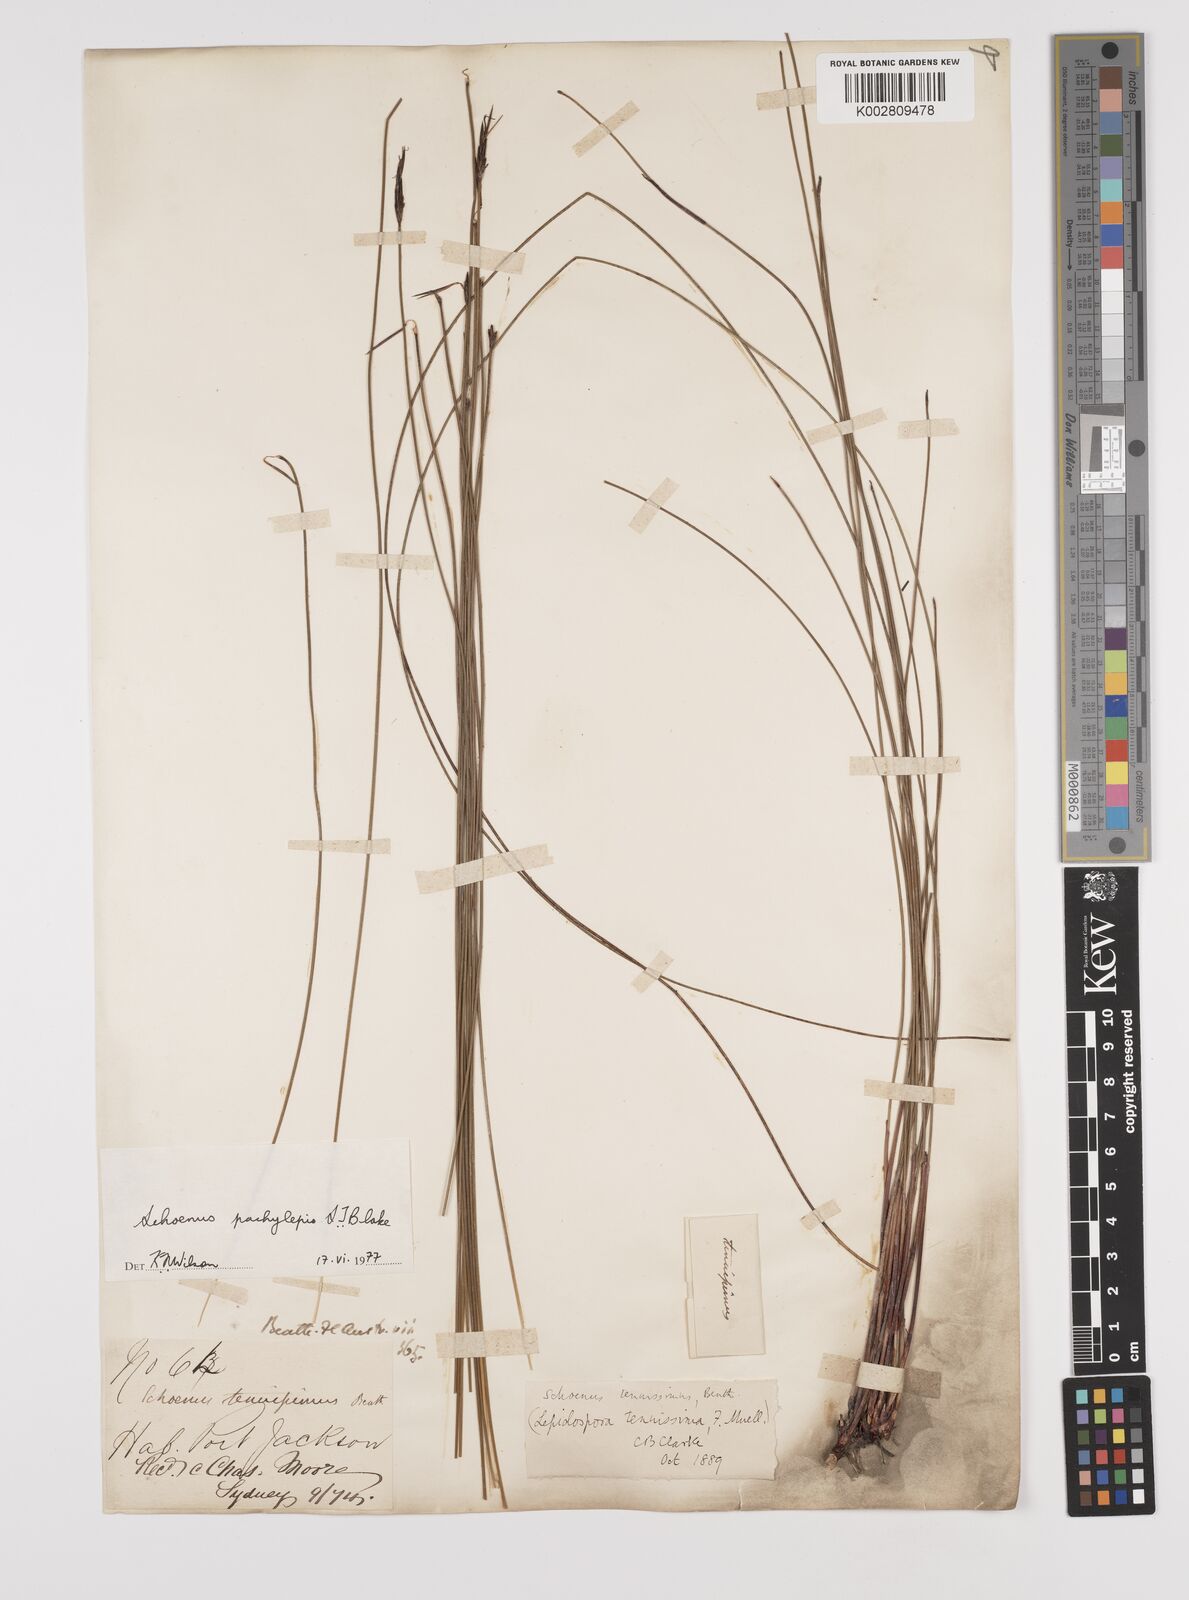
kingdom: Plantae
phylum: Tracheophyta
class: Liliopsida
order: Poales
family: Cyperaceae
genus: Schoenus
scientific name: Schoenus lepidosperma
